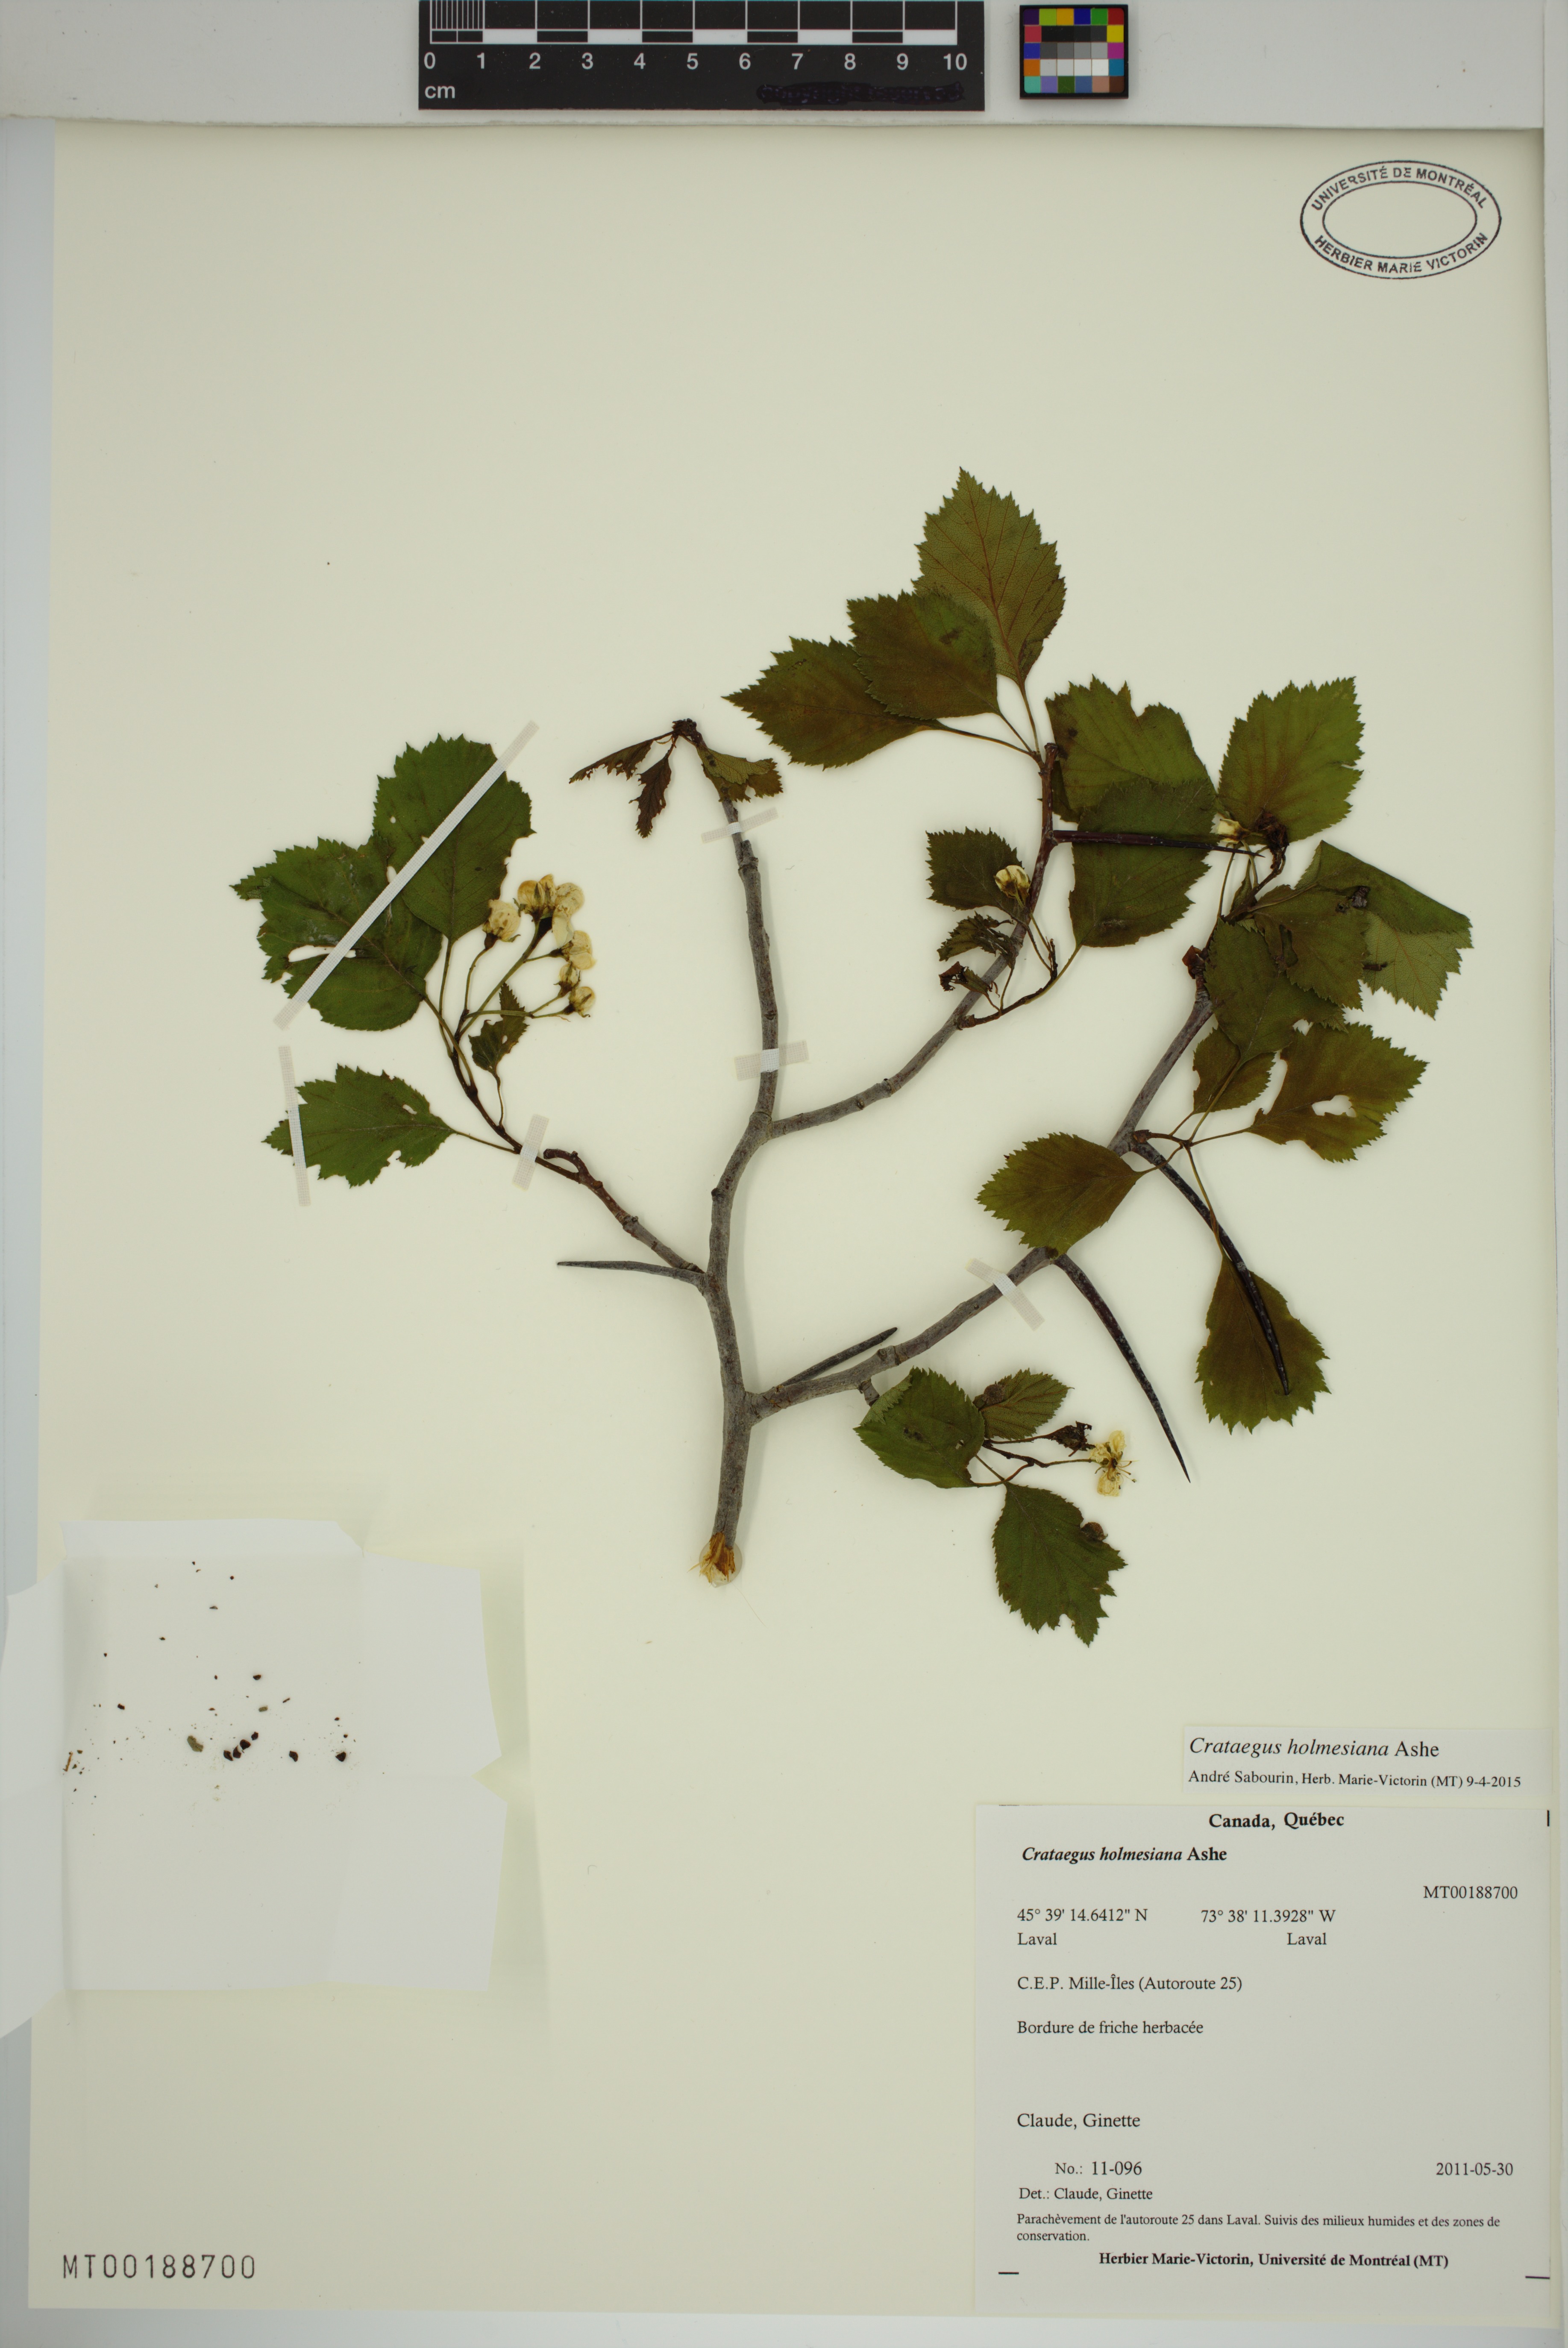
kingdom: Plantae
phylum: Tracheophyta
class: Magnoliopsida
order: Rosales
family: Rosaceae
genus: Crataegus
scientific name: Crataegus holmesiana
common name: Holmes' hawthorn
